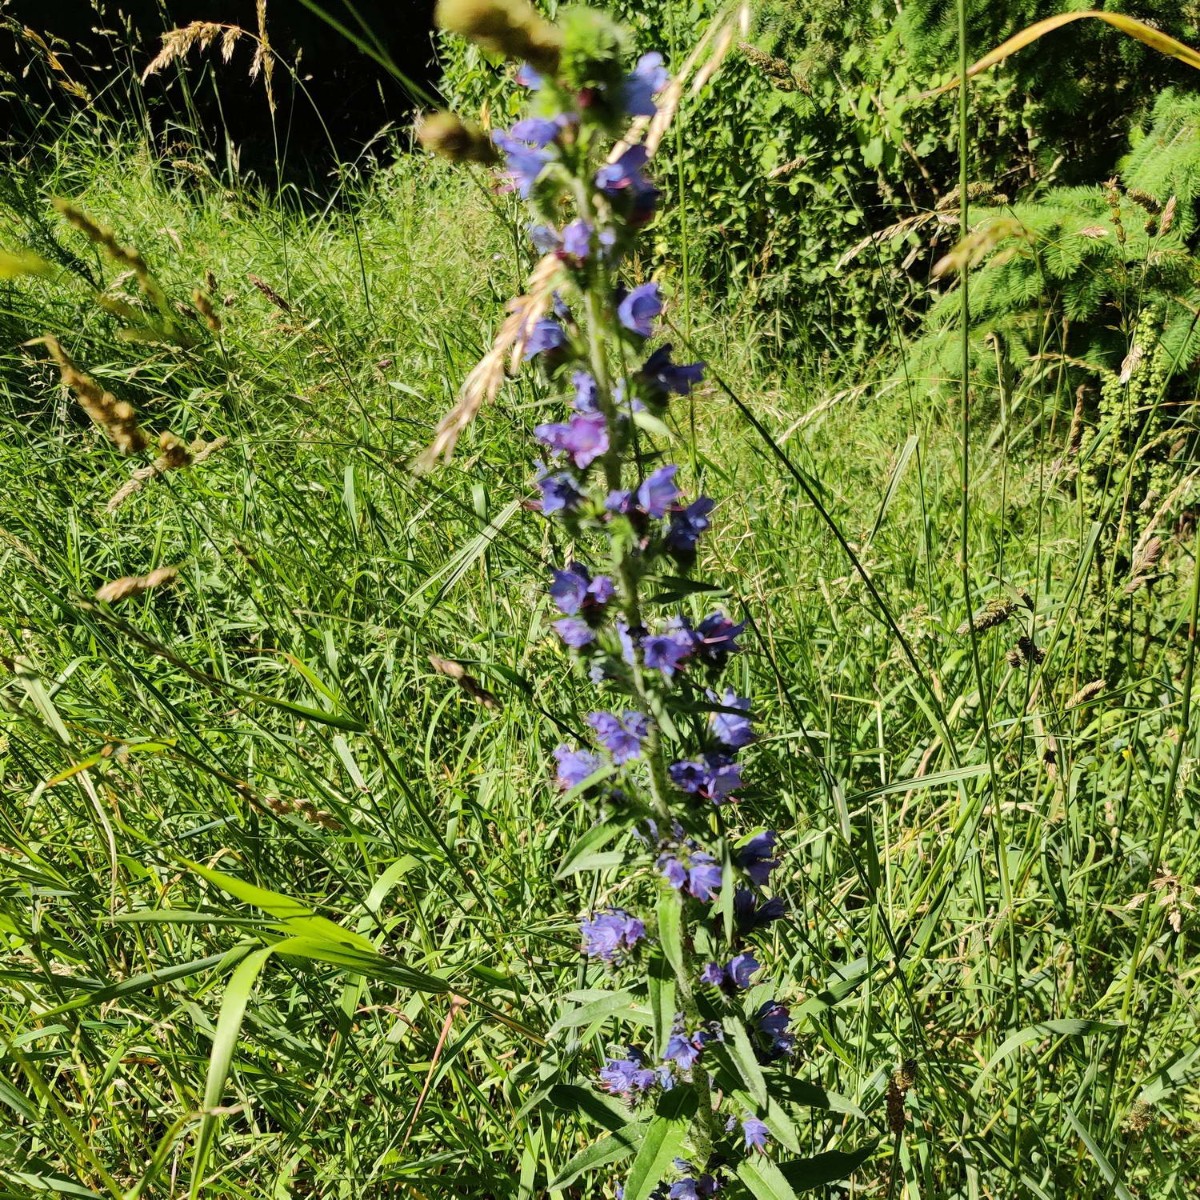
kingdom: Fungi
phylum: Ascomycota
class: Leotiomycetes
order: Helotiales
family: Erysiphaceae
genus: Golovinomyces
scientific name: Golovinomyces asperifolii
